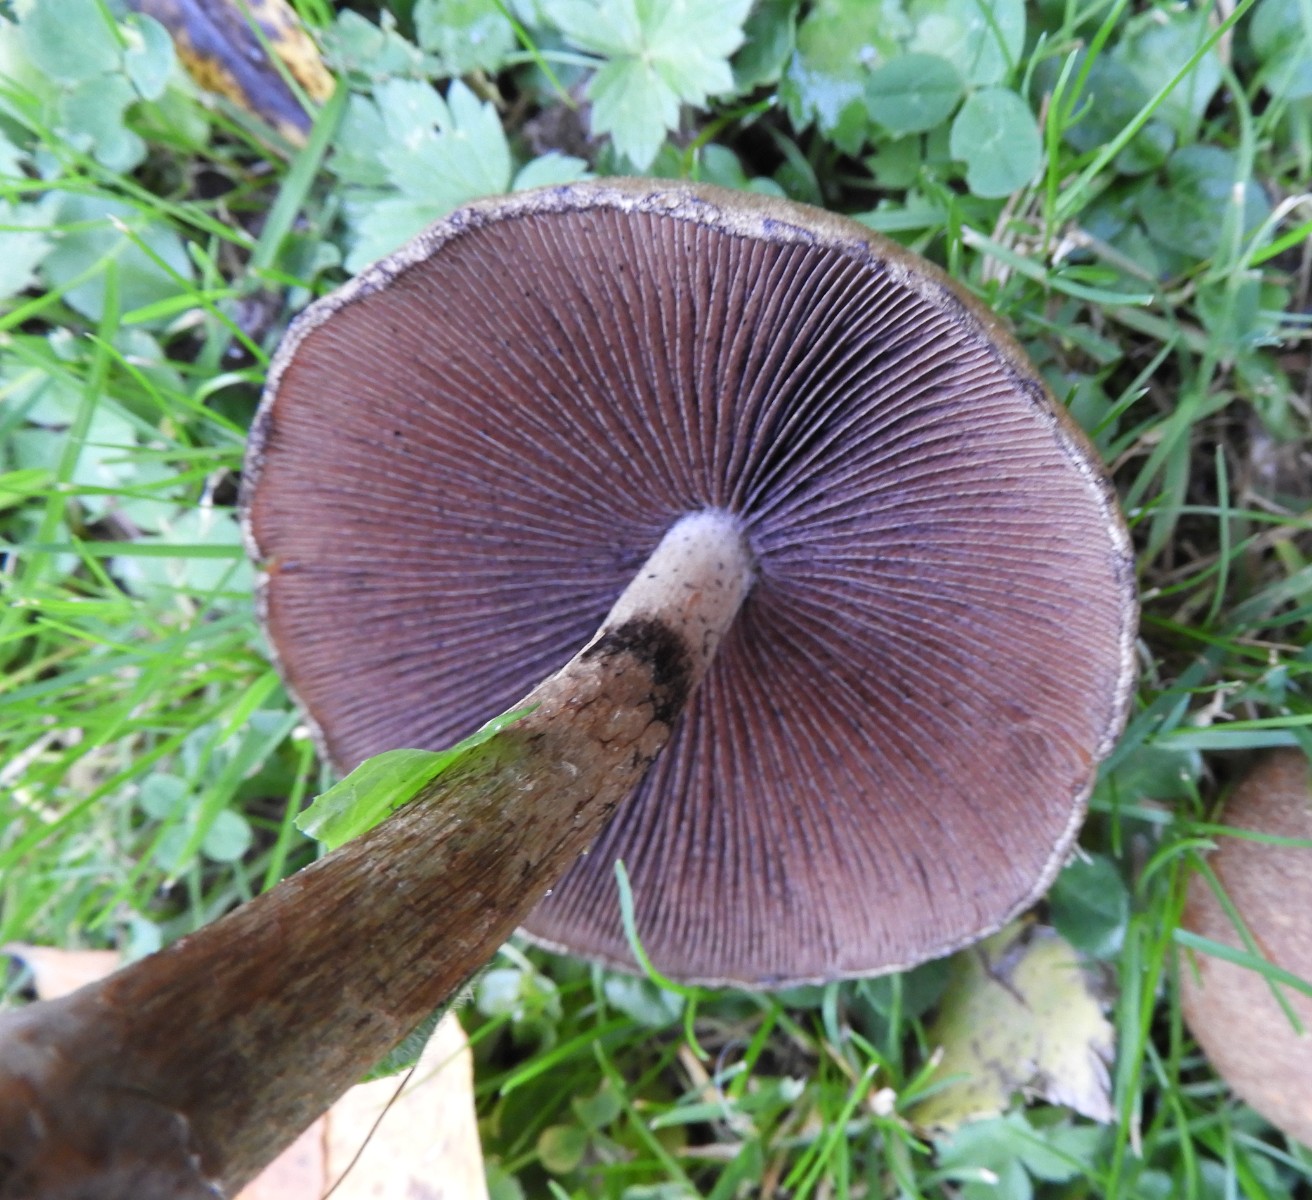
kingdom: Fungi
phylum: Basidiomycota
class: Agaricomycetes
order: Agaricales
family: Psathyrellaceae
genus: Lacrymaria
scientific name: Lacrymaria lacrymabunda
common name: grædende mørkhat
